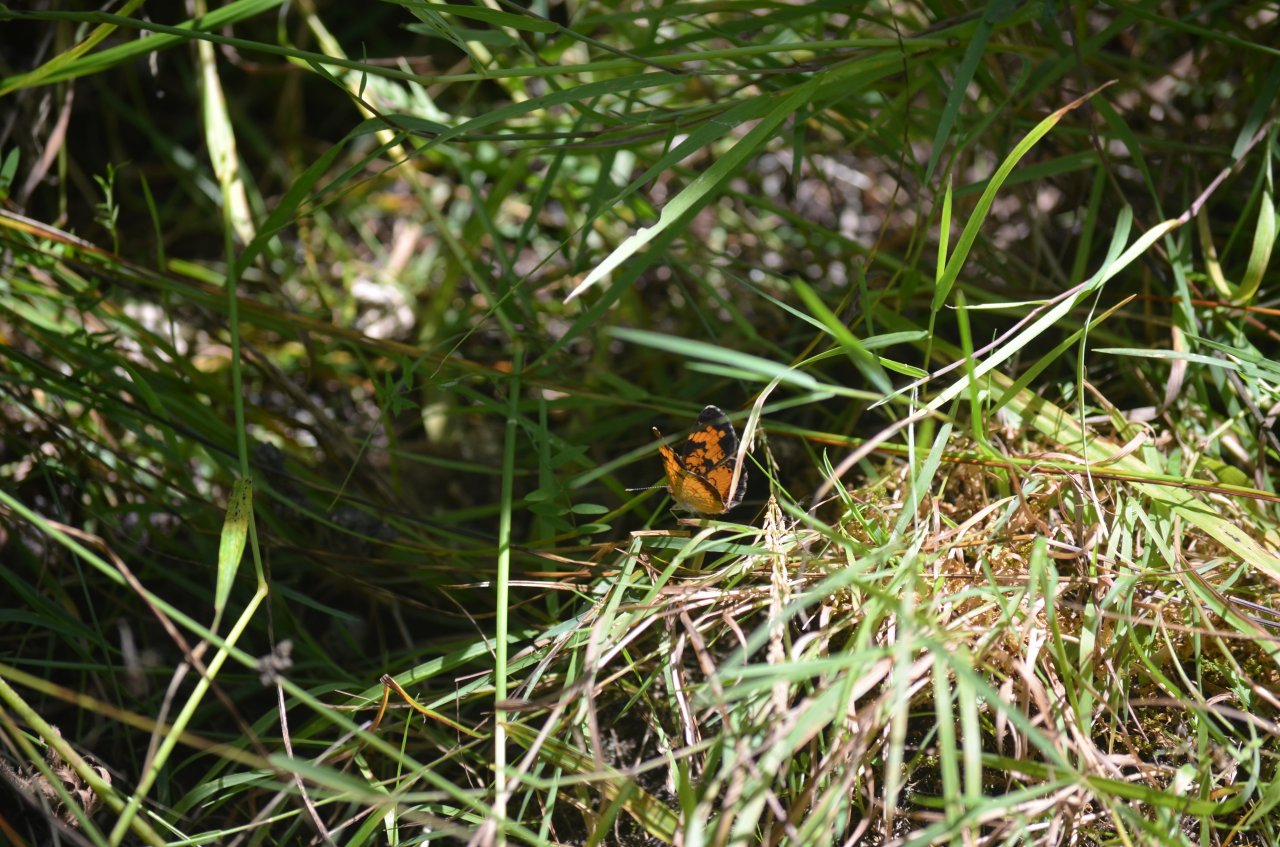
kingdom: Animalia
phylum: Arthropoda
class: Insecta
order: Lepidoptera
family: Nymphalidae
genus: Phyciodes
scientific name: Phyciodes tharos
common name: Northern Crescent
